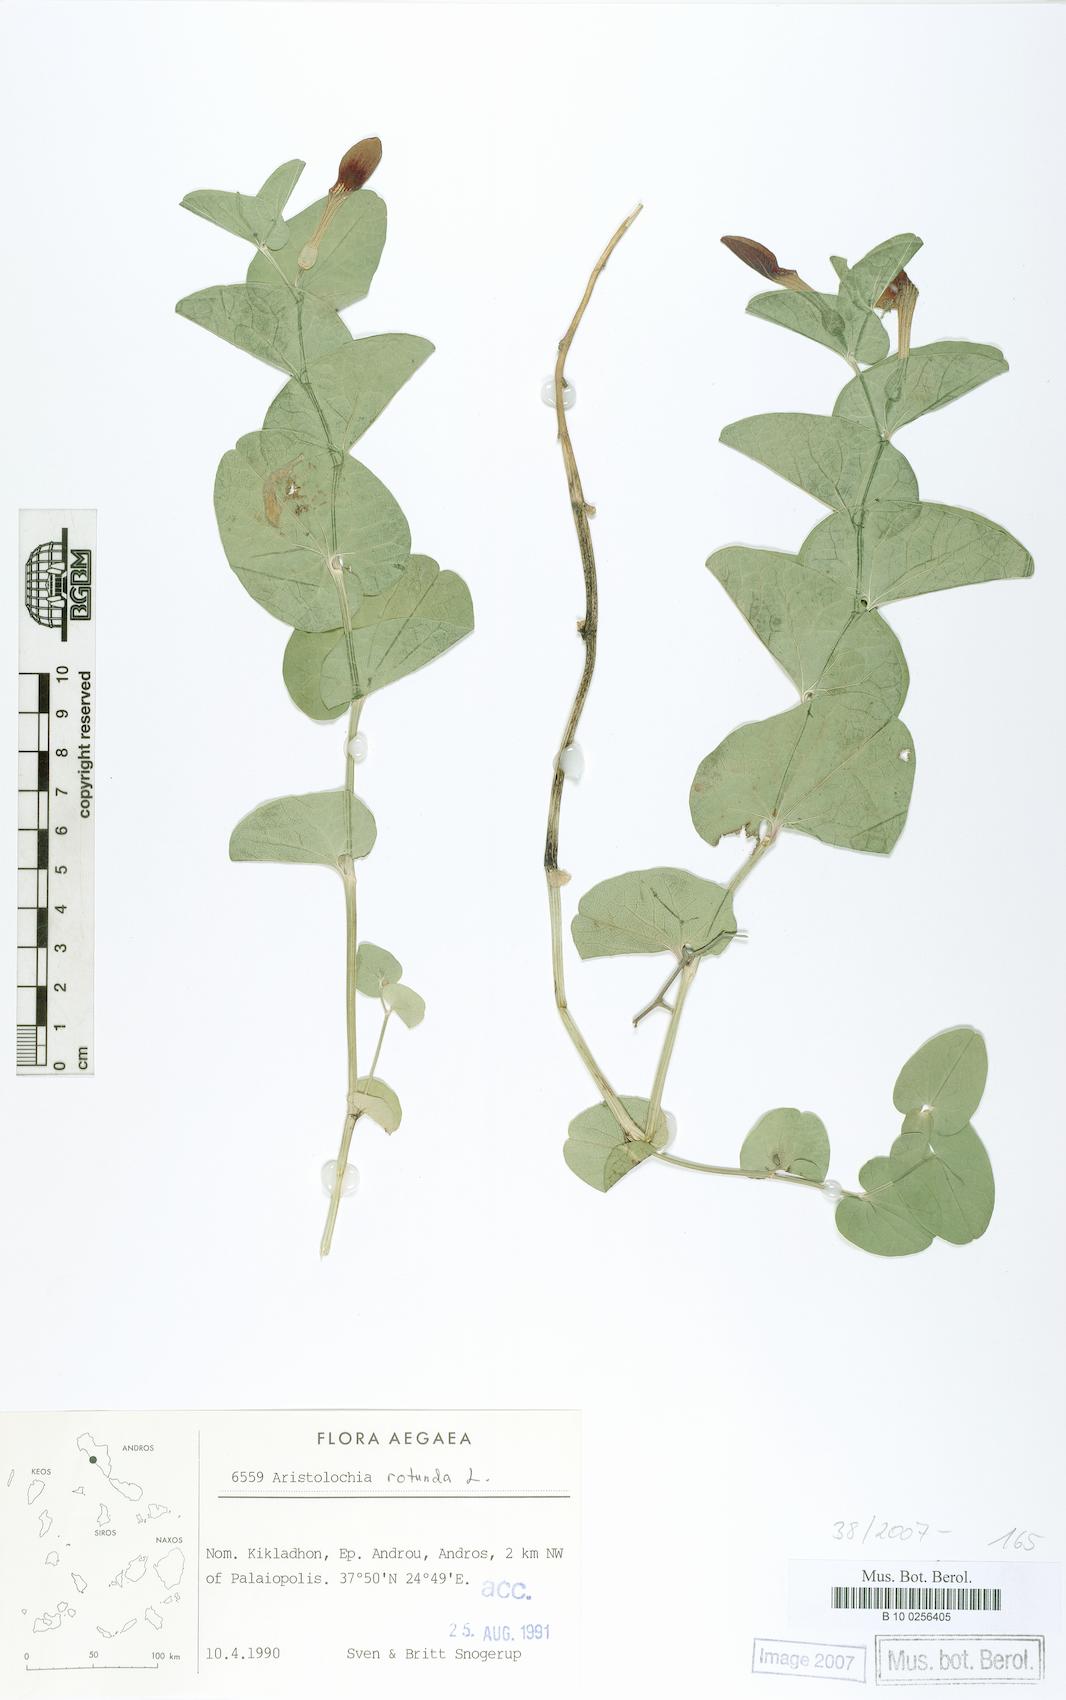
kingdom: Plantae
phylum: Tracheophyta
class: Magnoliopsida
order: Piperales
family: Aristolochiaceae
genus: Aristolochia
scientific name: Aristolochia rotunda
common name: Smearwort
